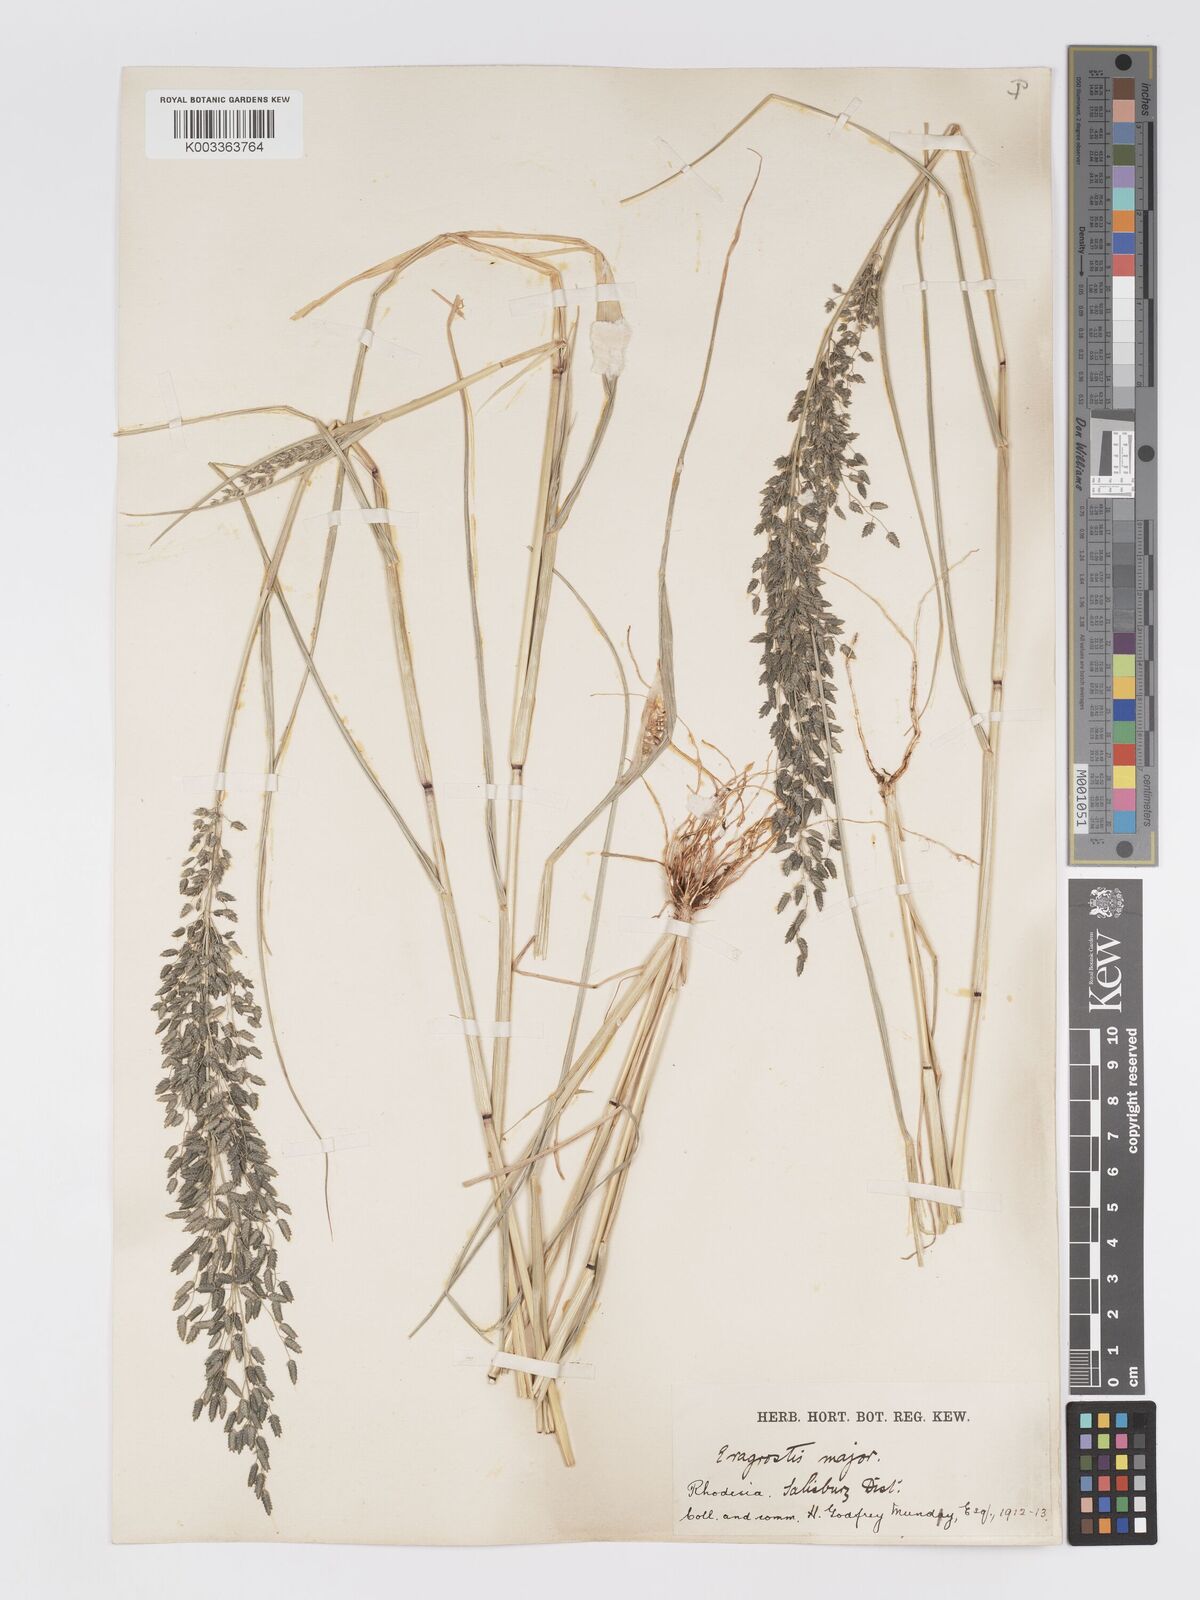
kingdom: Plantae
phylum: Tracheophyta
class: Liliopsida
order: Poales
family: Poaceae
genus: Eragrostis
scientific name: Eragrostis cilianensis
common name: Stinkgrass
